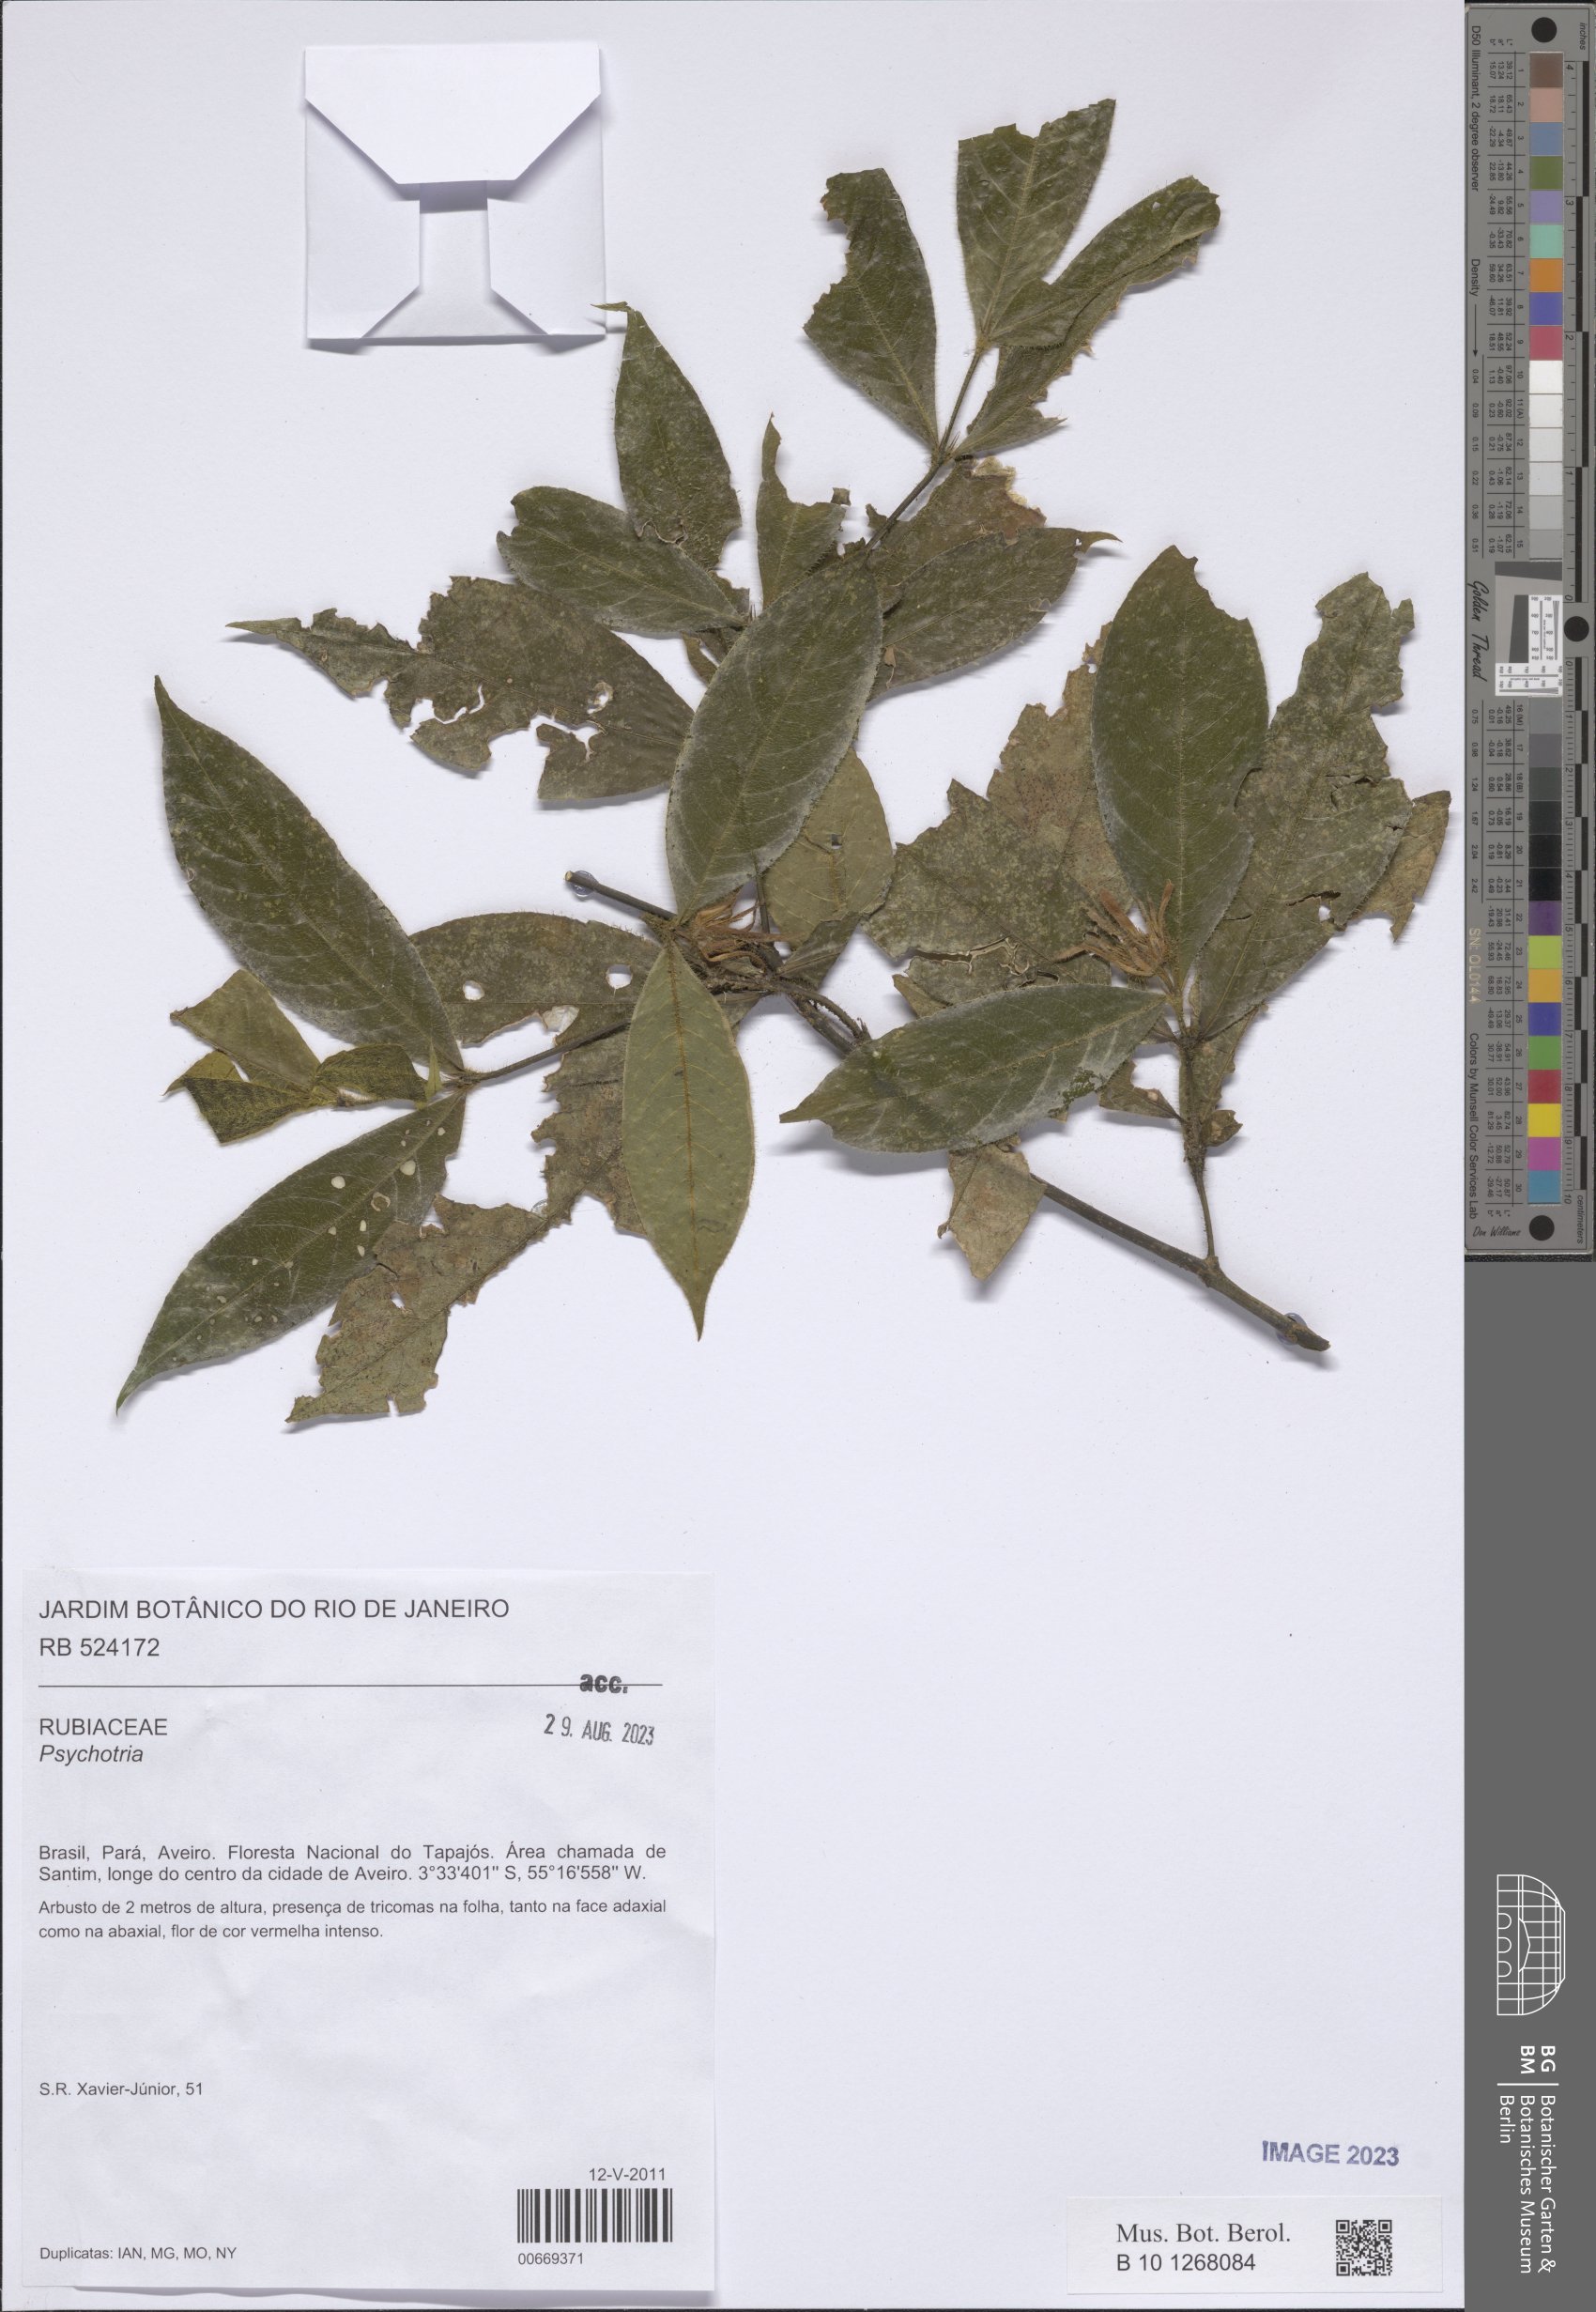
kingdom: Plantae
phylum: Tracheophyta
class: Magnoliopsida
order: Gentianales
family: Rubiaceae
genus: Psychotria
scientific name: Psychotria
